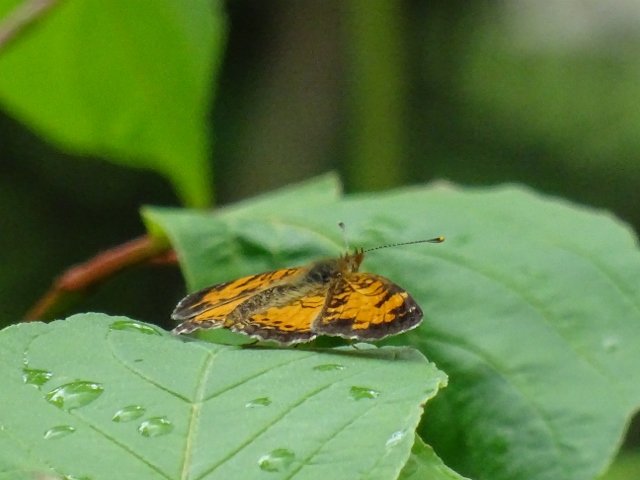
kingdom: Animalia
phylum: Arthropoda
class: Insecta
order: Lepidoptera
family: Nymphalidae
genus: Phyciodes
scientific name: Phyciodes tharos
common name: Northern Crescent
